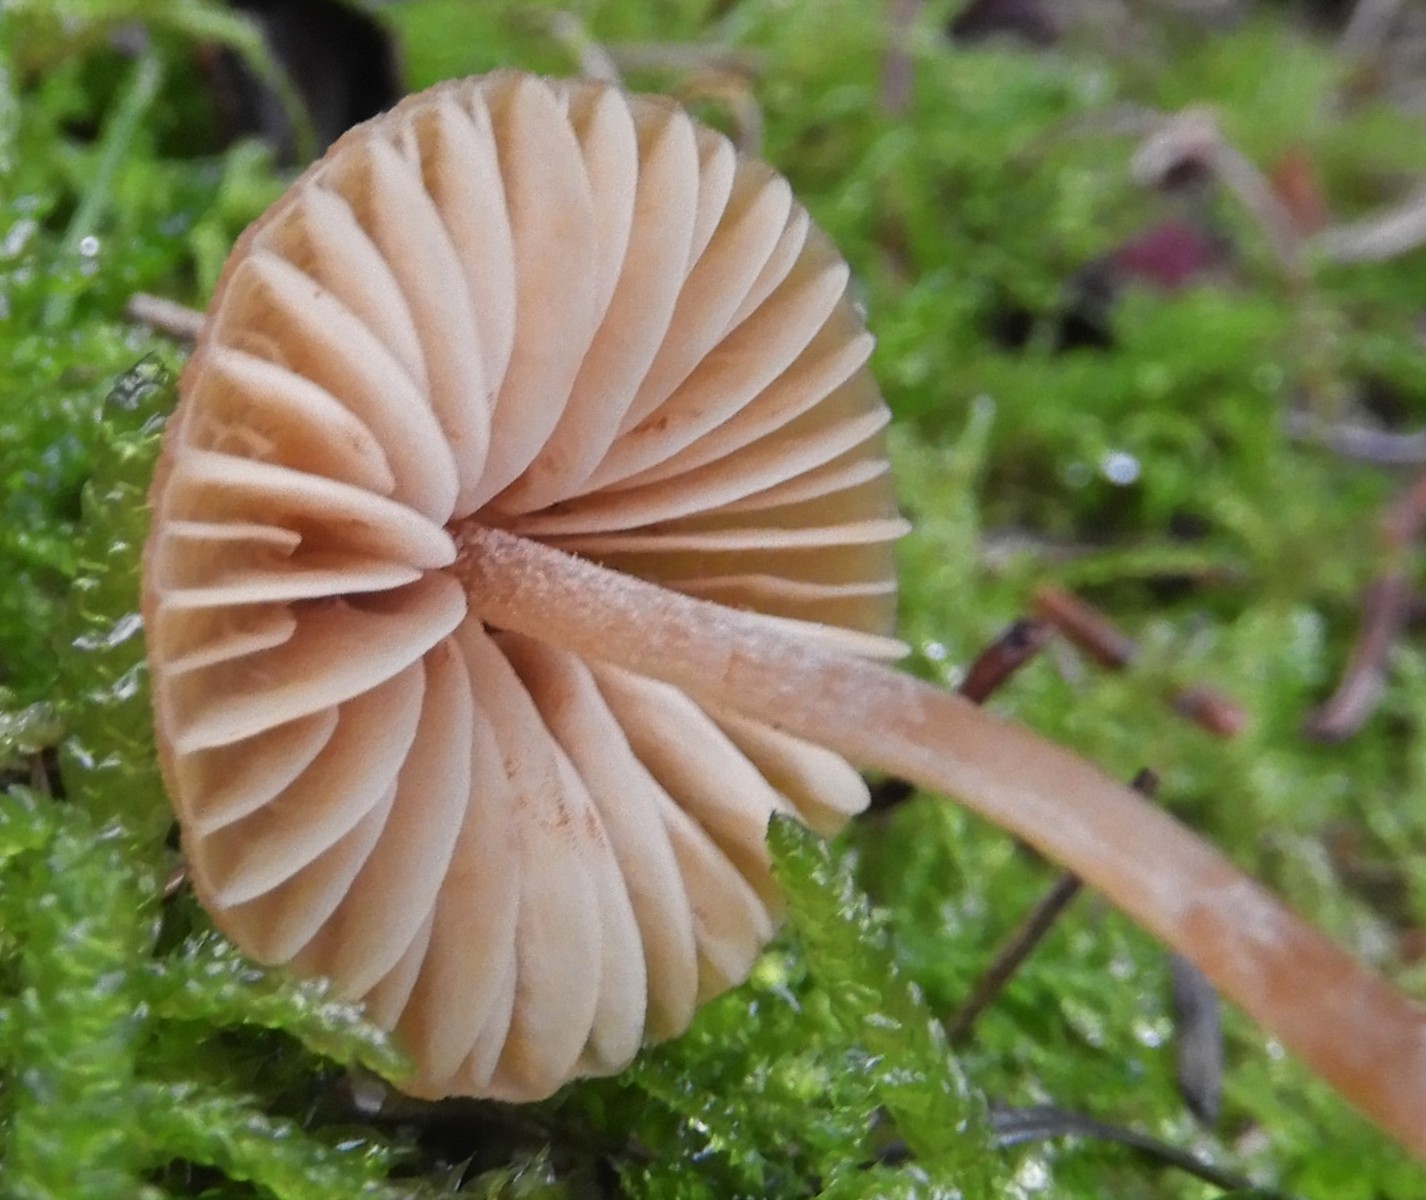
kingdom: Fungi
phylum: Basidiomycota
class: Agaricomycetes
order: Agaricales
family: Entolomataceae
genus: Entoloma
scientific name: Entoloma cetratum
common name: voks-rødblad
